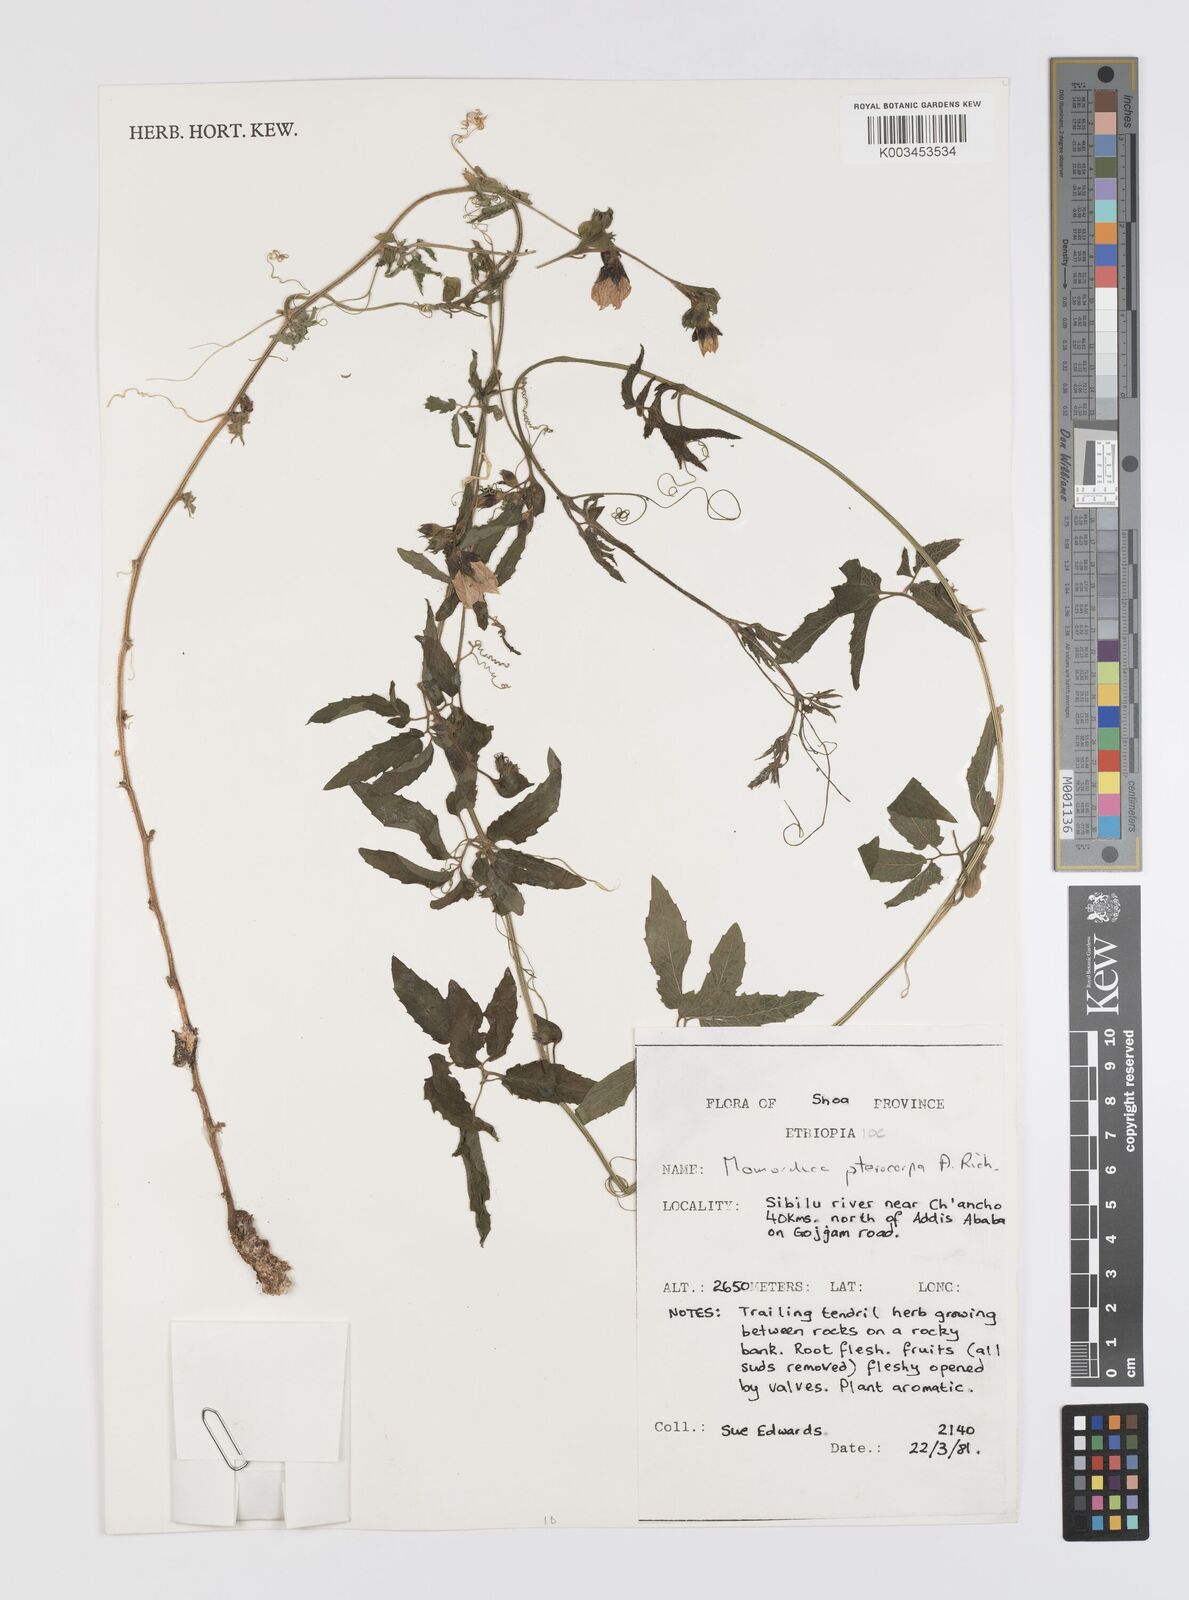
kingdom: Plantae
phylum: Tracheophyta
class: Magnoliopsida
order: Cucurbitales
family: Cucurbitaceae
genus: Momordica
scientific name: Momordica pterocarpa
